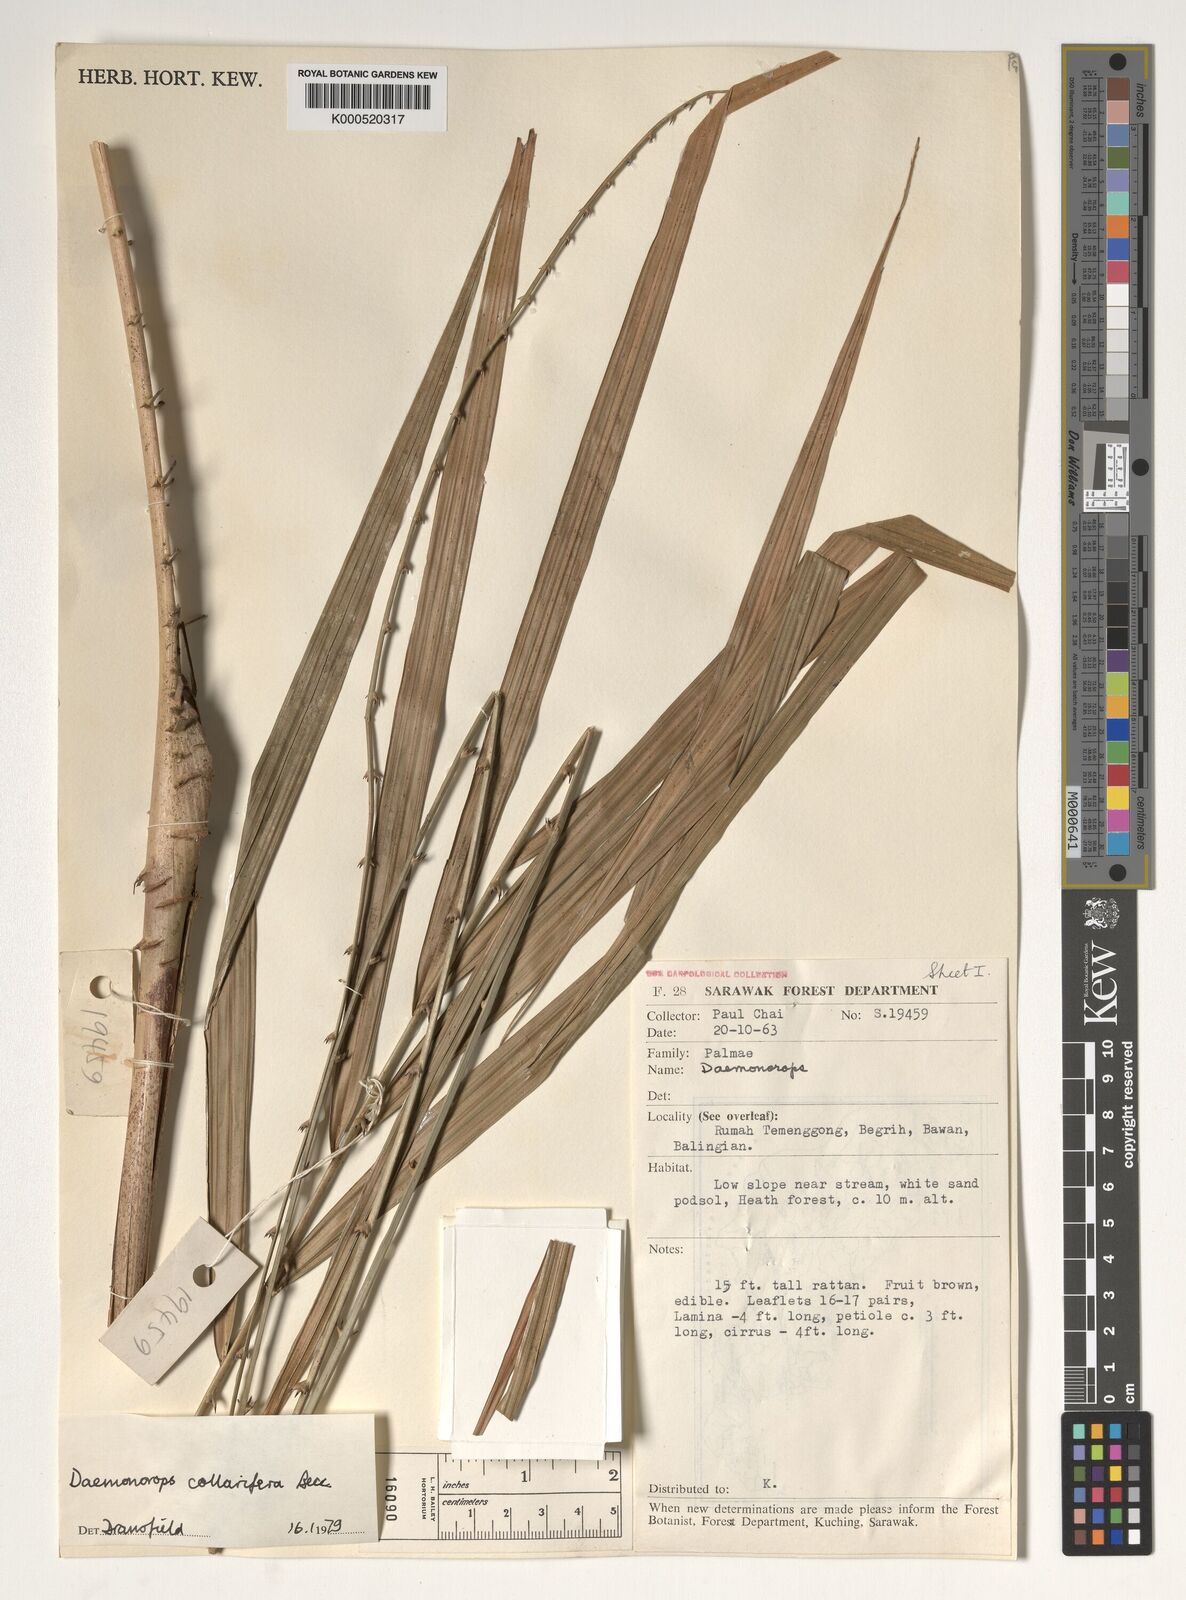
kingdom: Plantae
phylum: Tracheophyta
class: Liliopsida
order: Arecales
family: Arecaceae
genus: Calamus
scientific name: Calamus geniculatus
